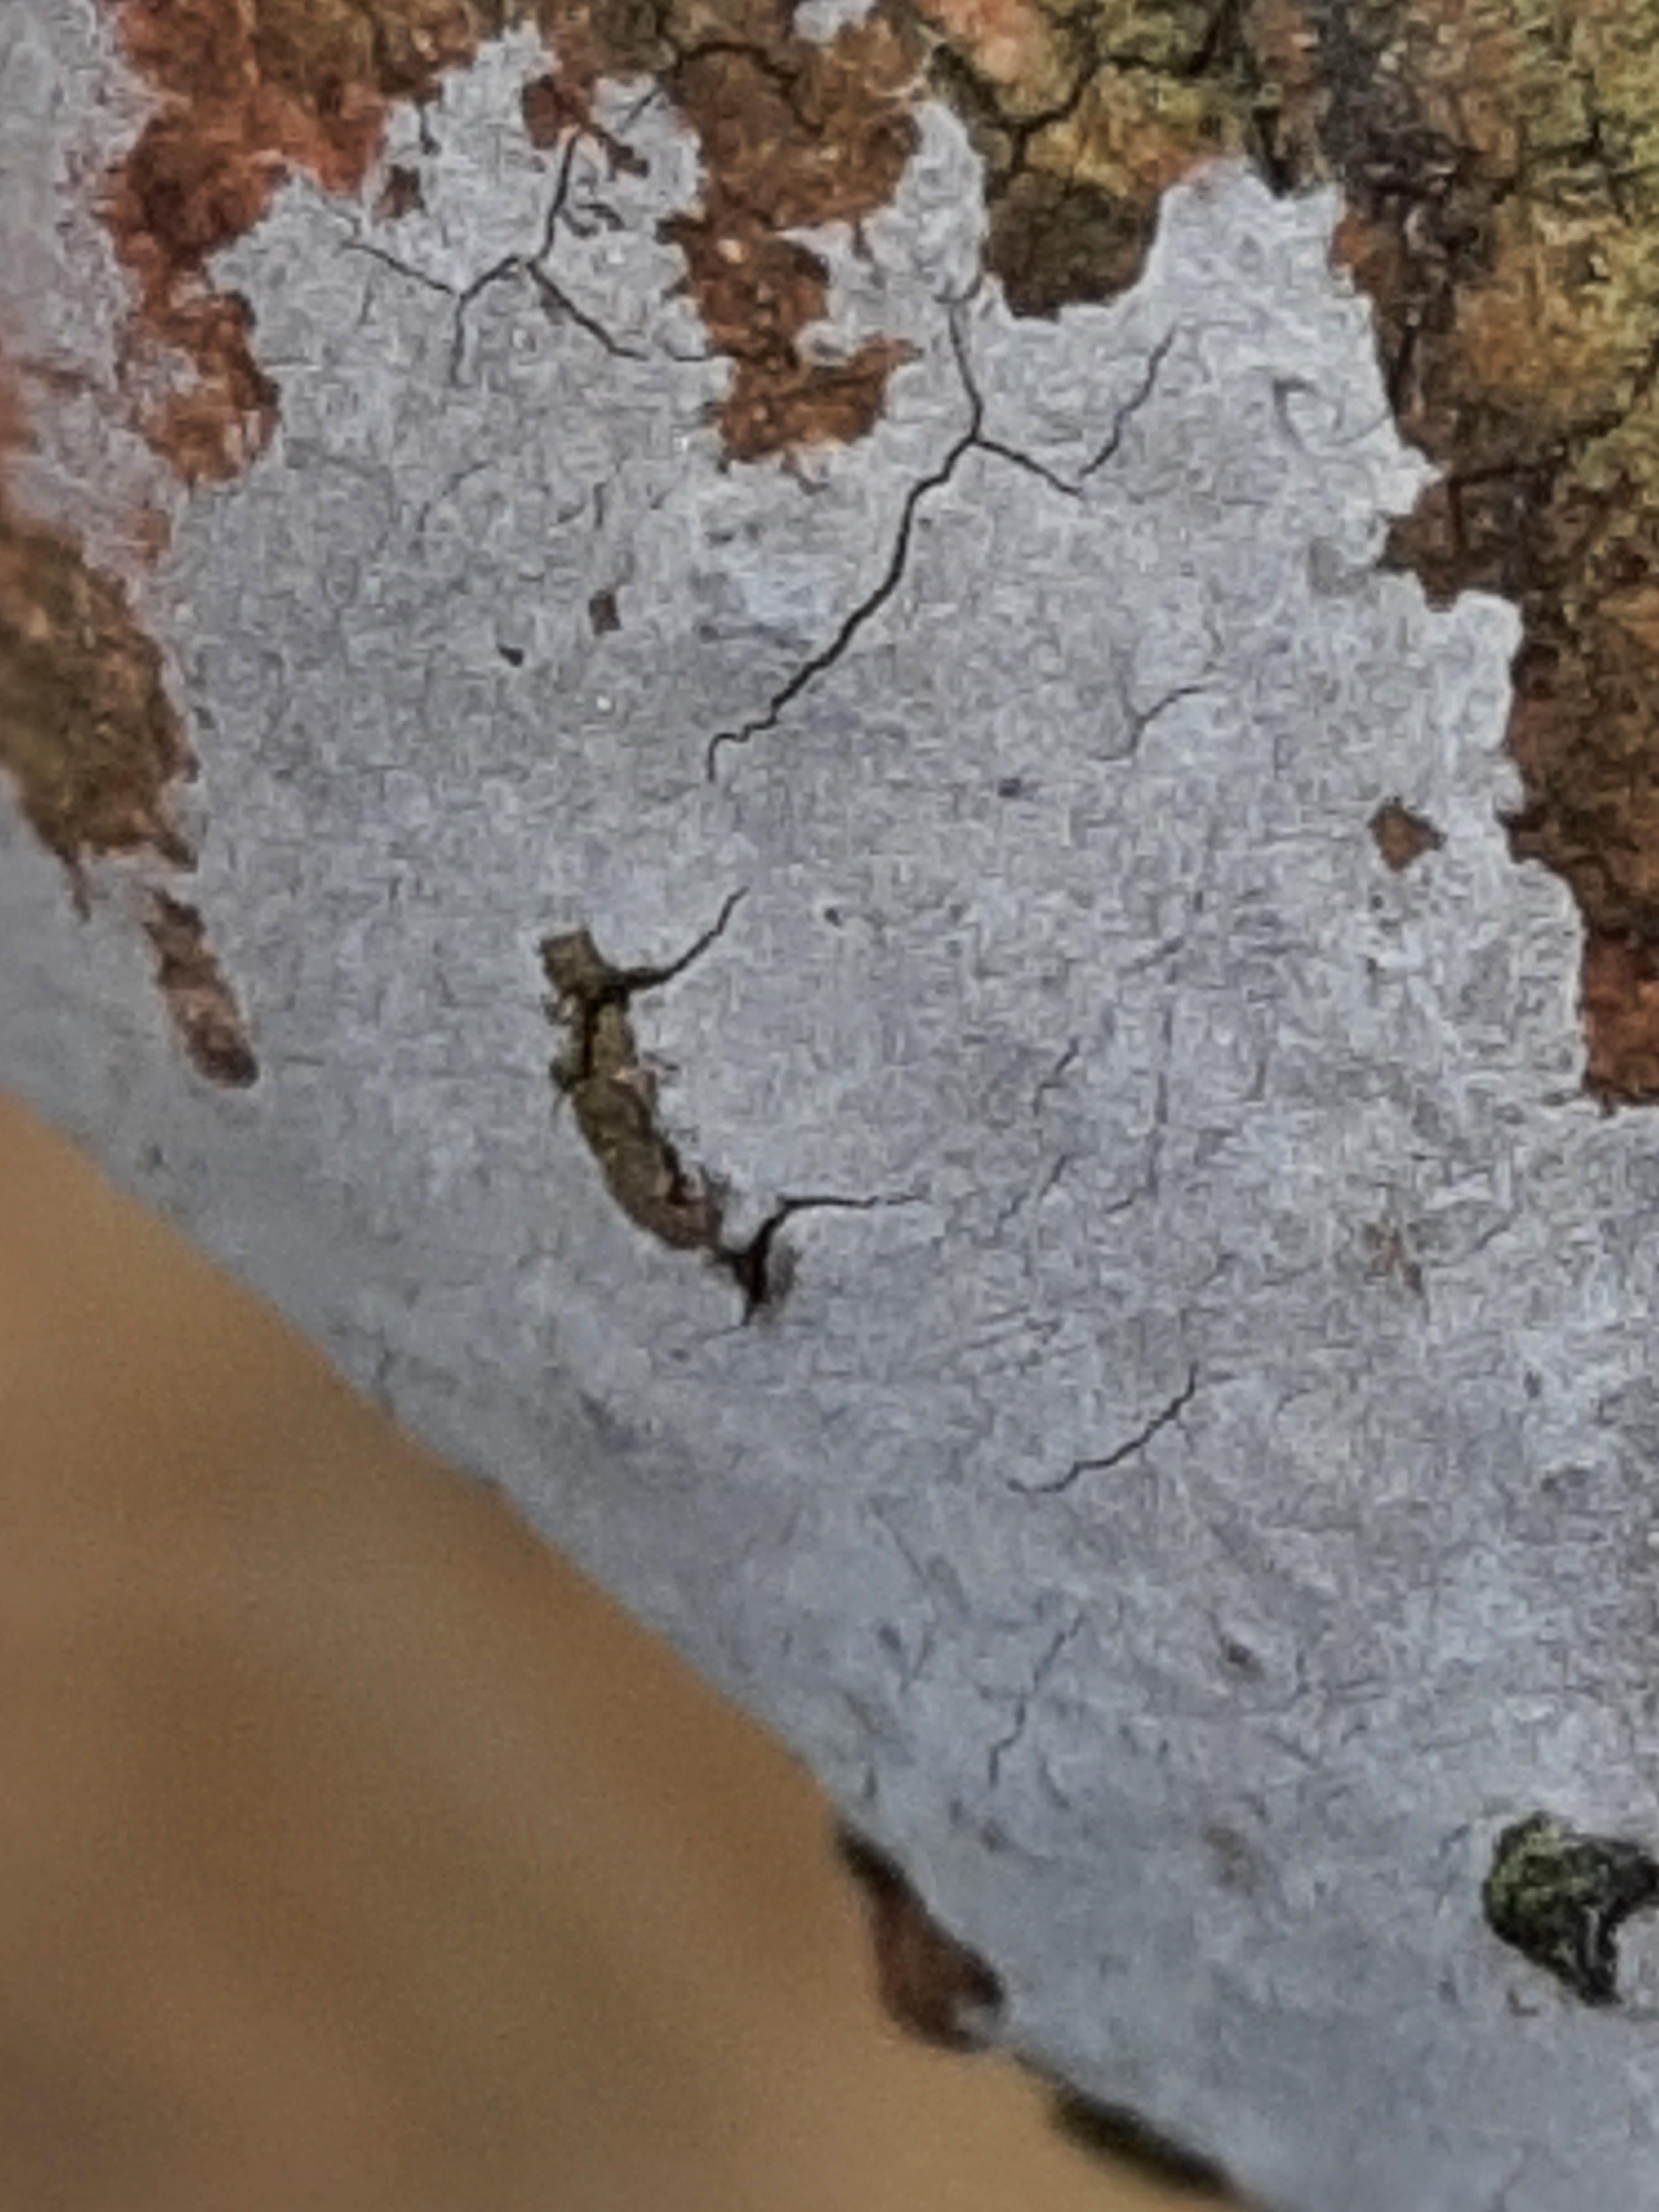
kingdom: Fungi
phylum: Basidiomycota
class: Agaricomycetes
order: Russulales
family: Peniophoraceae
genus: Peniophora
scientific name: Peniophora lycii
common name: grynet voksskind
